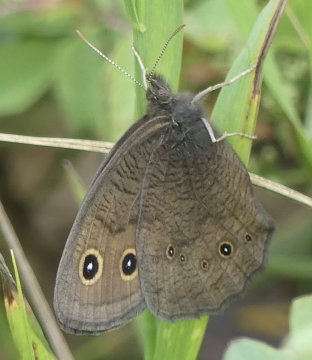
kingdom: Animalia
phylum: Arthropoda
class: Insecta
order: Lepidoptera
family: Nymphalidae
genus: Cercyonis
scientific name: Cercyonis pegala
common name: Common Wood-Nymph
